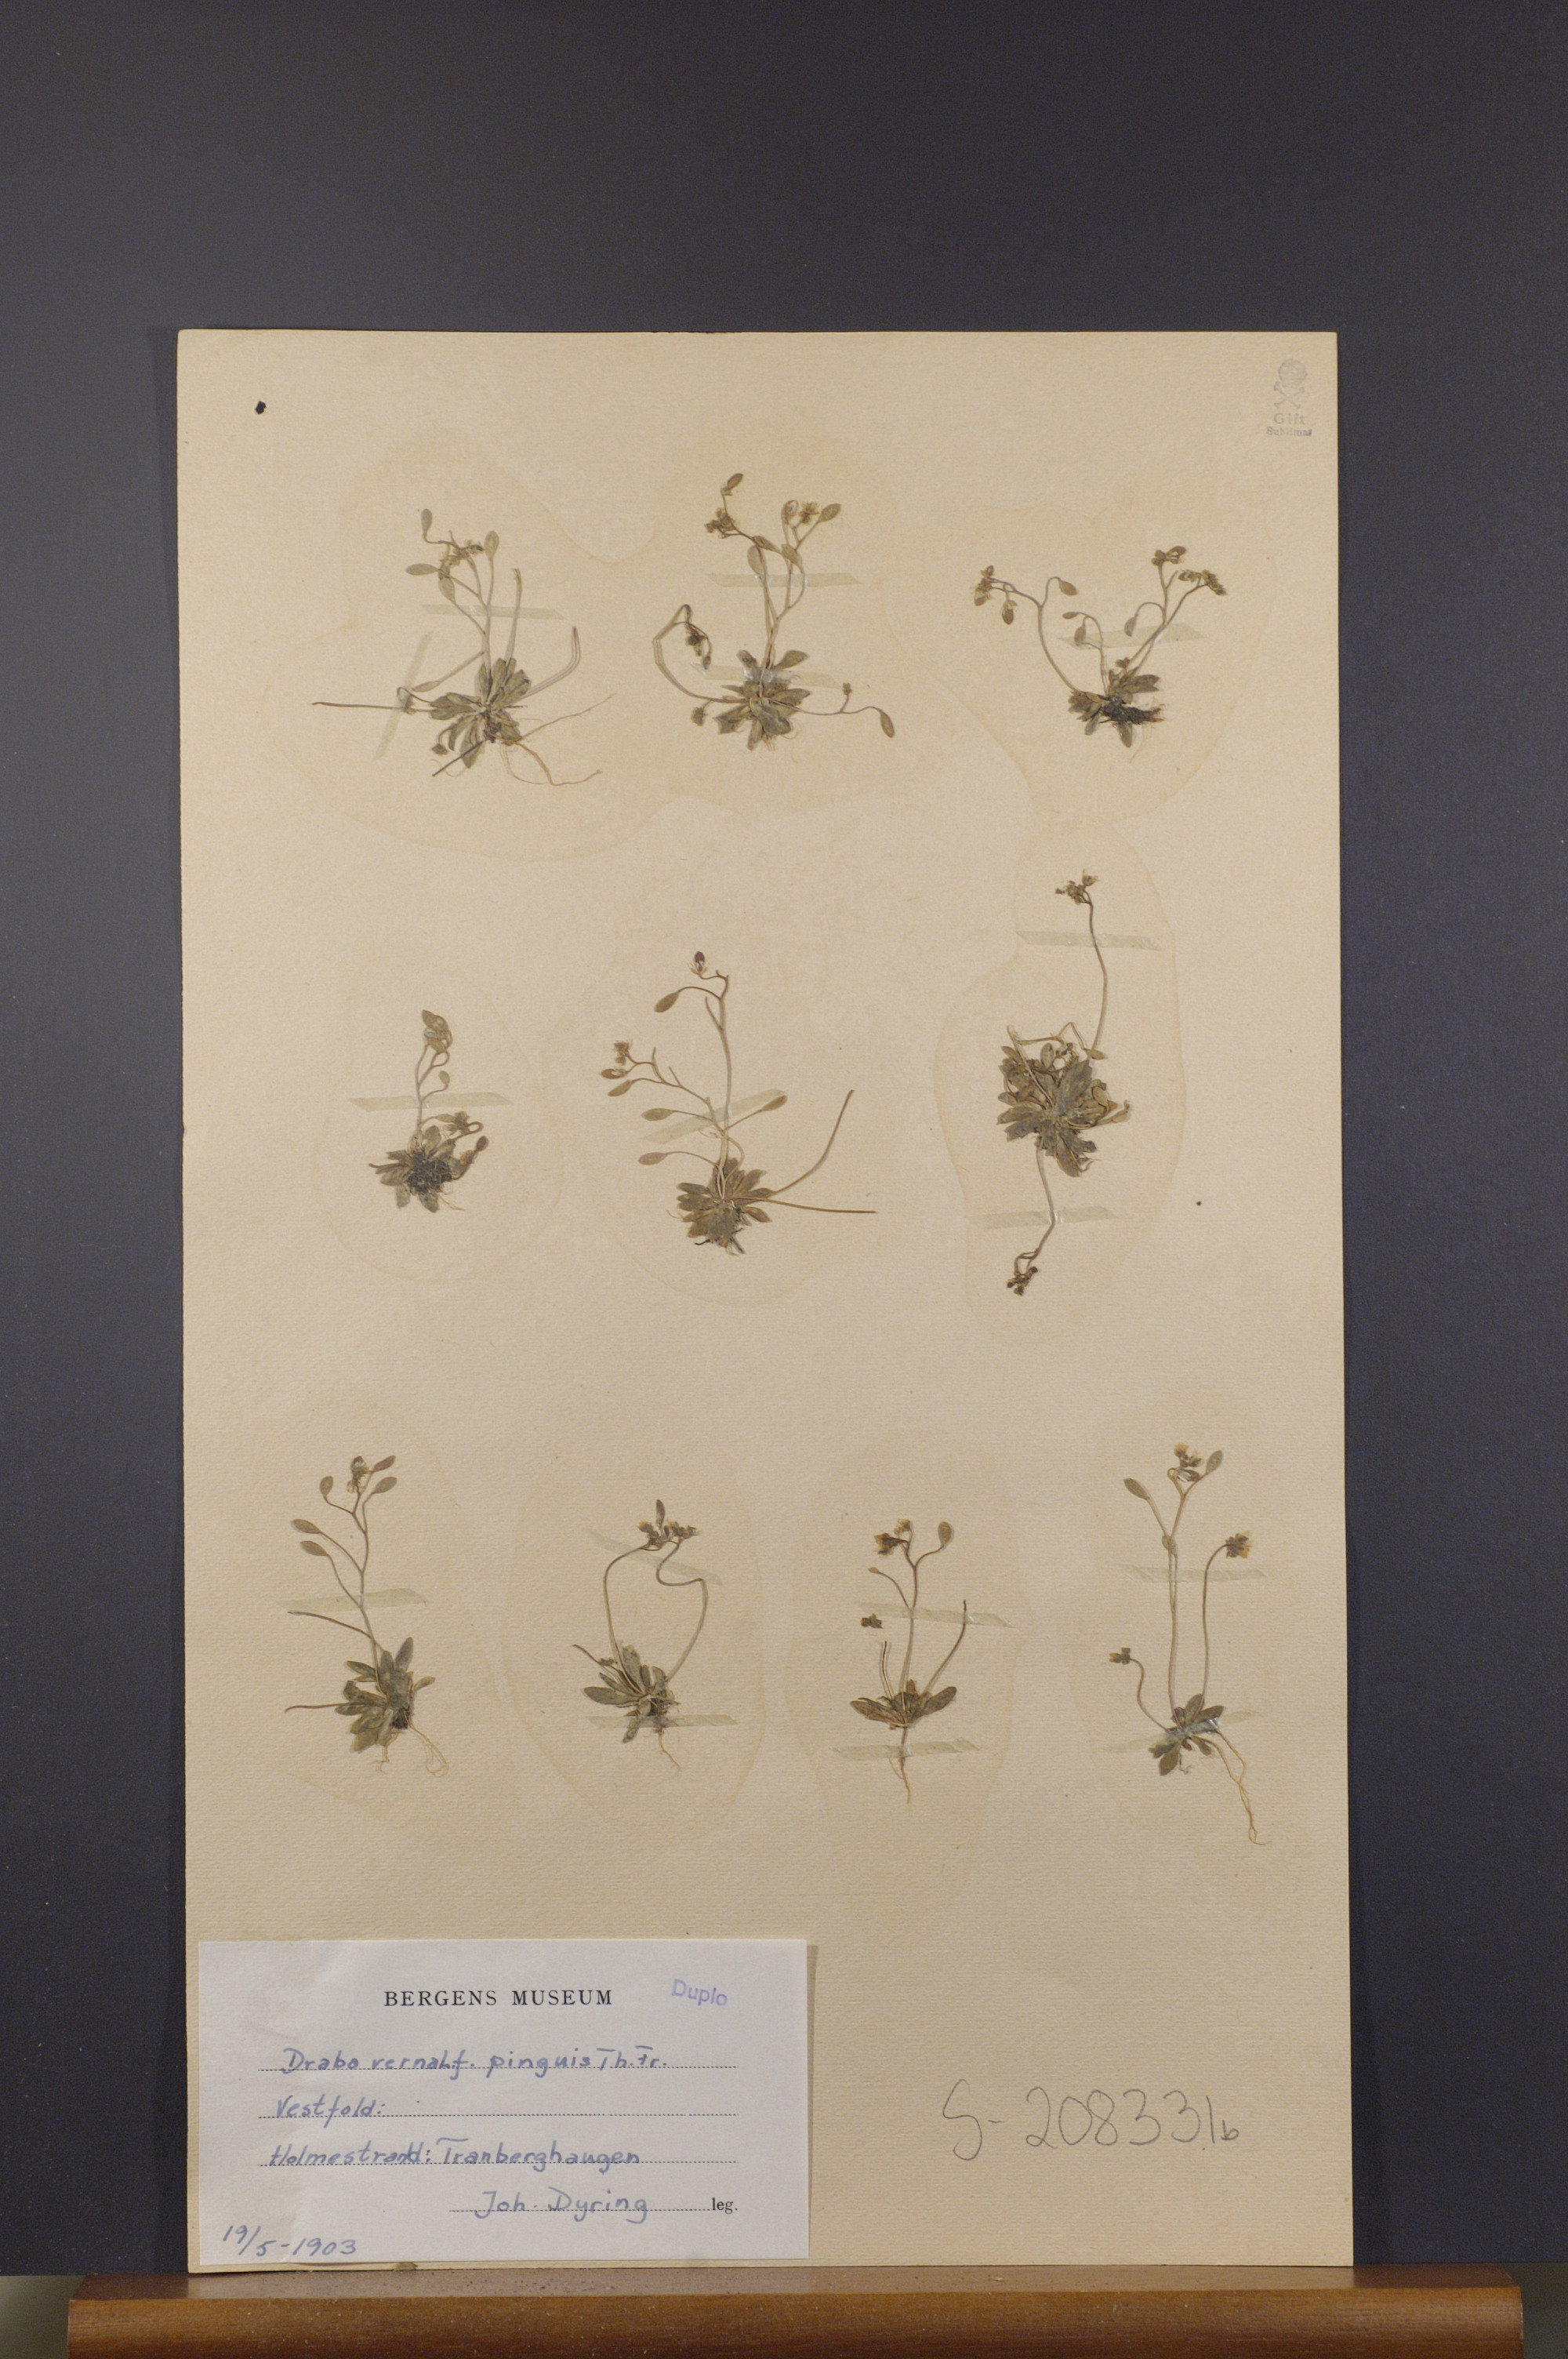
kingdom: Plantae
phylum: Tracheophyta
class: Magnoliopsida
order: Brassicales
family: Brassicaceae
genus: Draba
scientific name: Draba verna
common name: Spring draba
